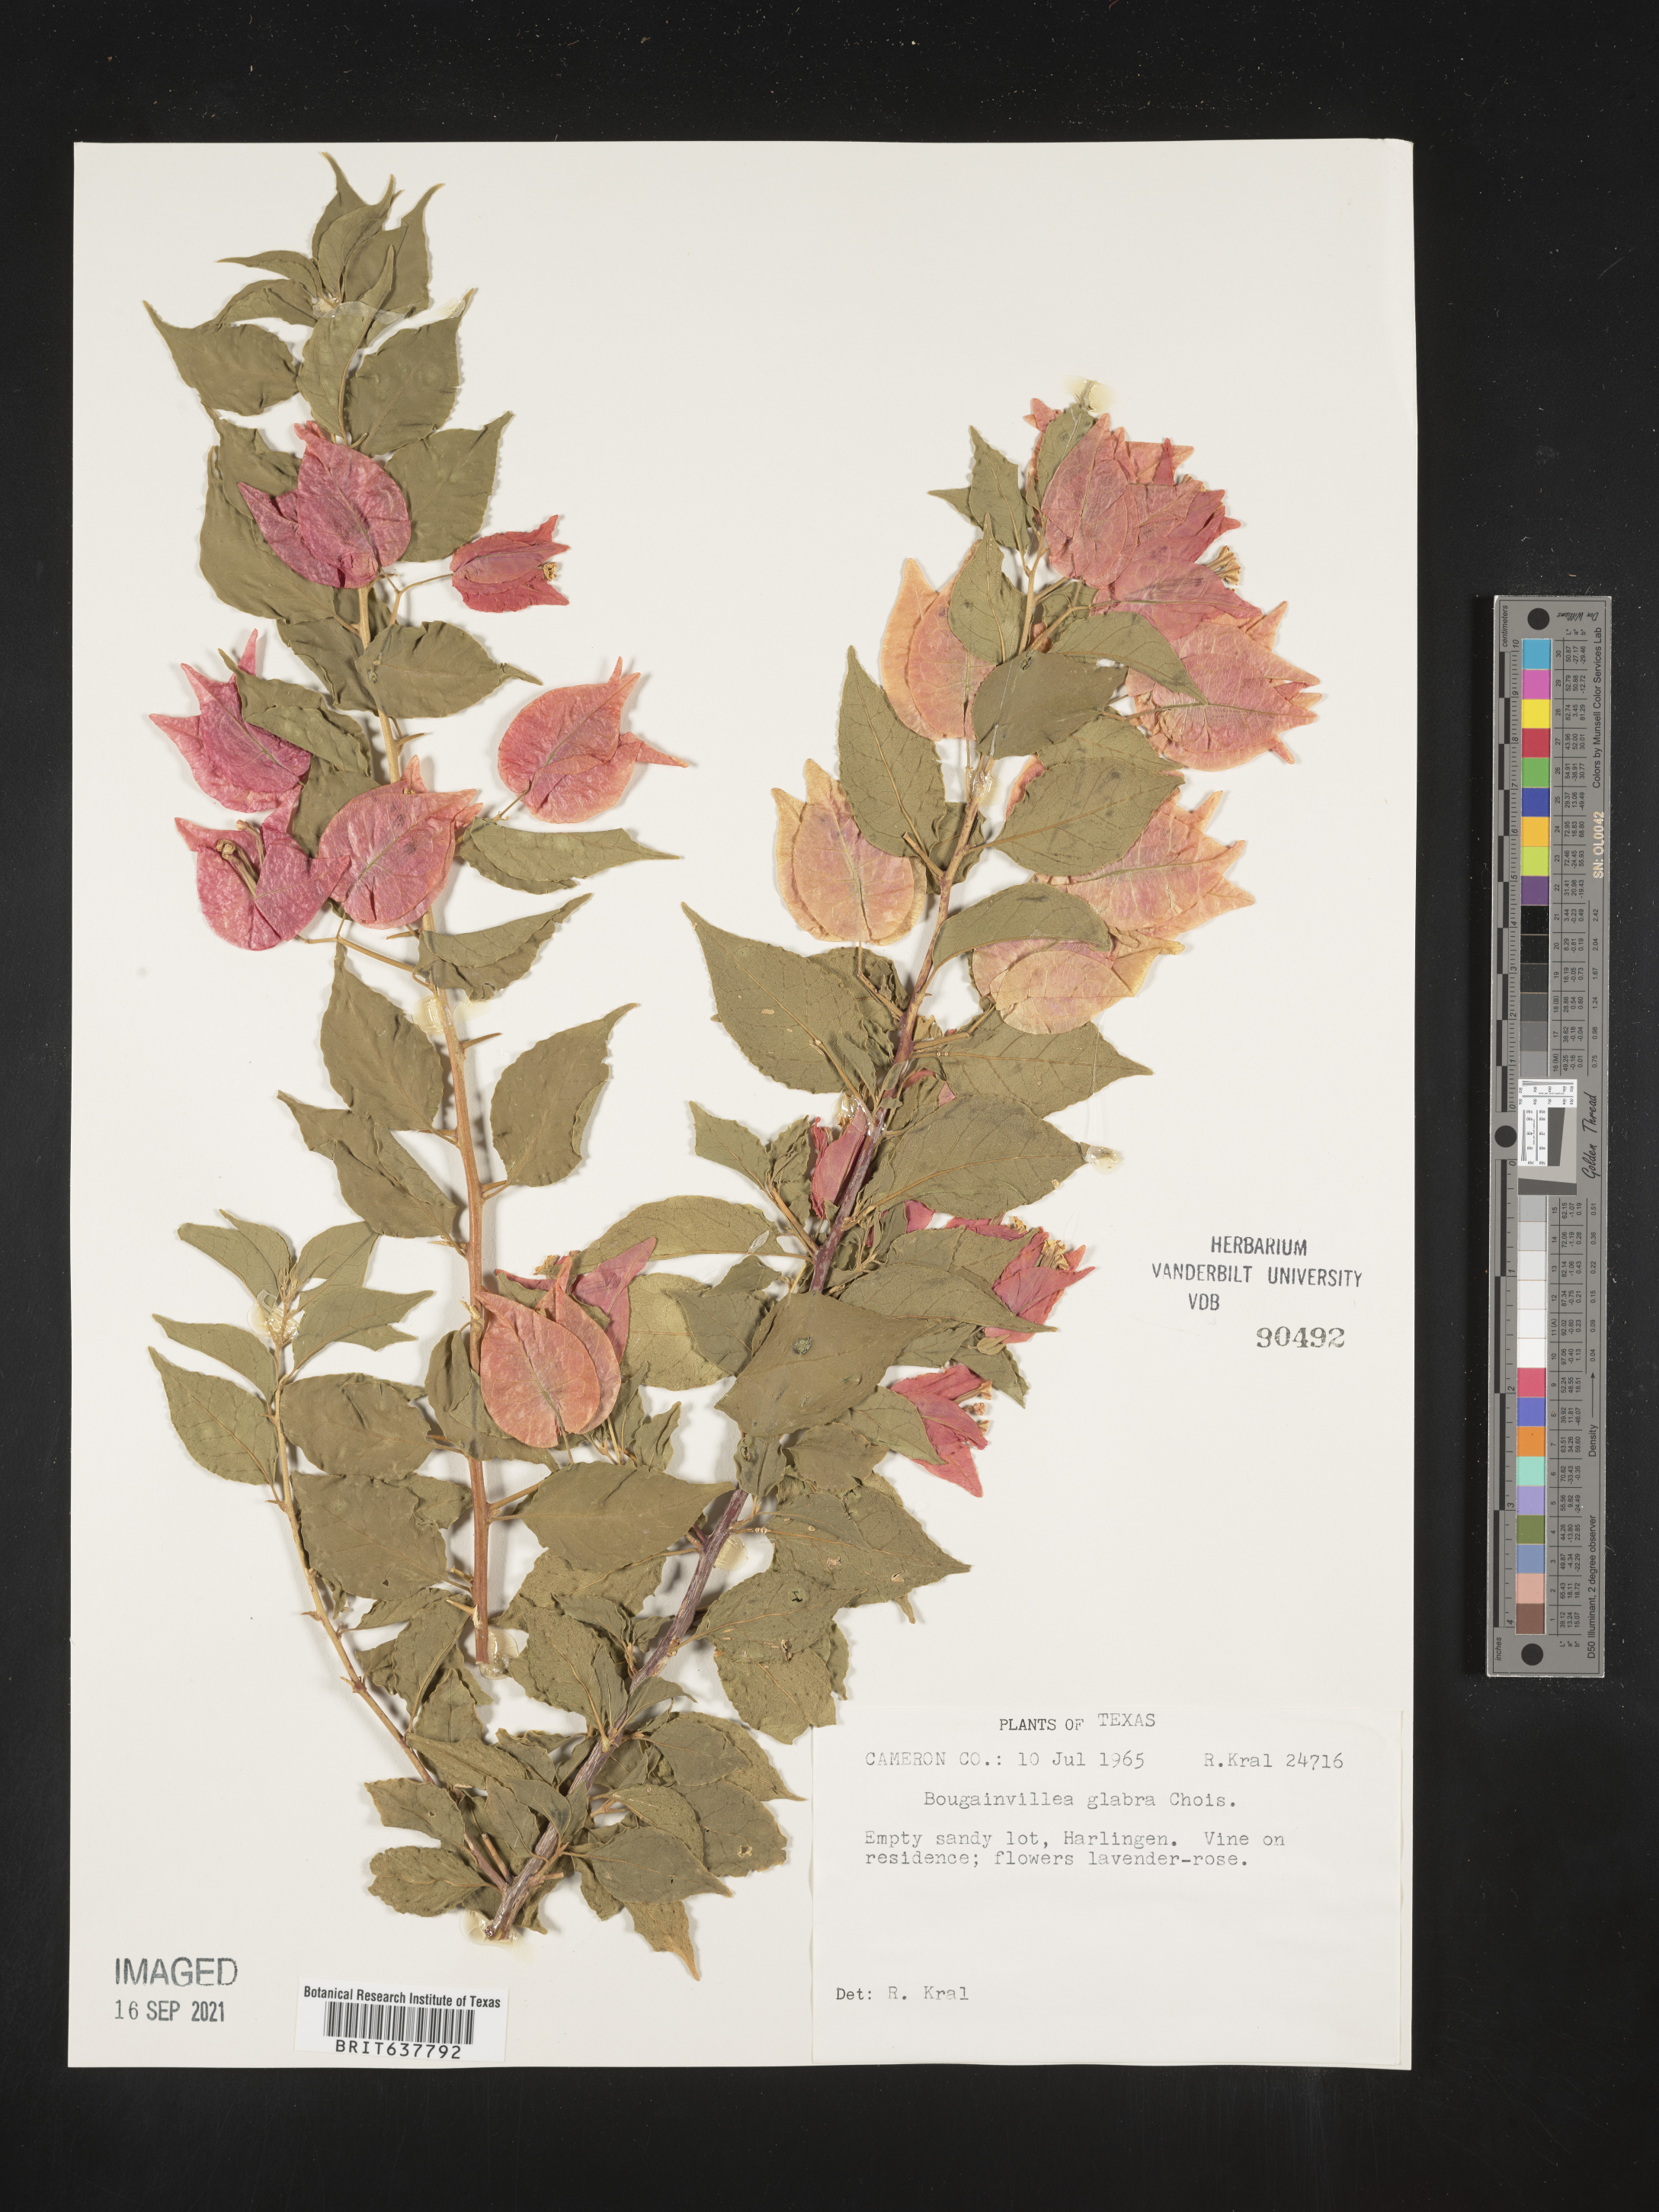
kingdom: Plantae
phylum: Tracheophyta
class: Magnoliopsida
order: Caryophyllales
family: Nyctaginaceae
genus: Bougainvillea
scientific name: Bougainvillea
